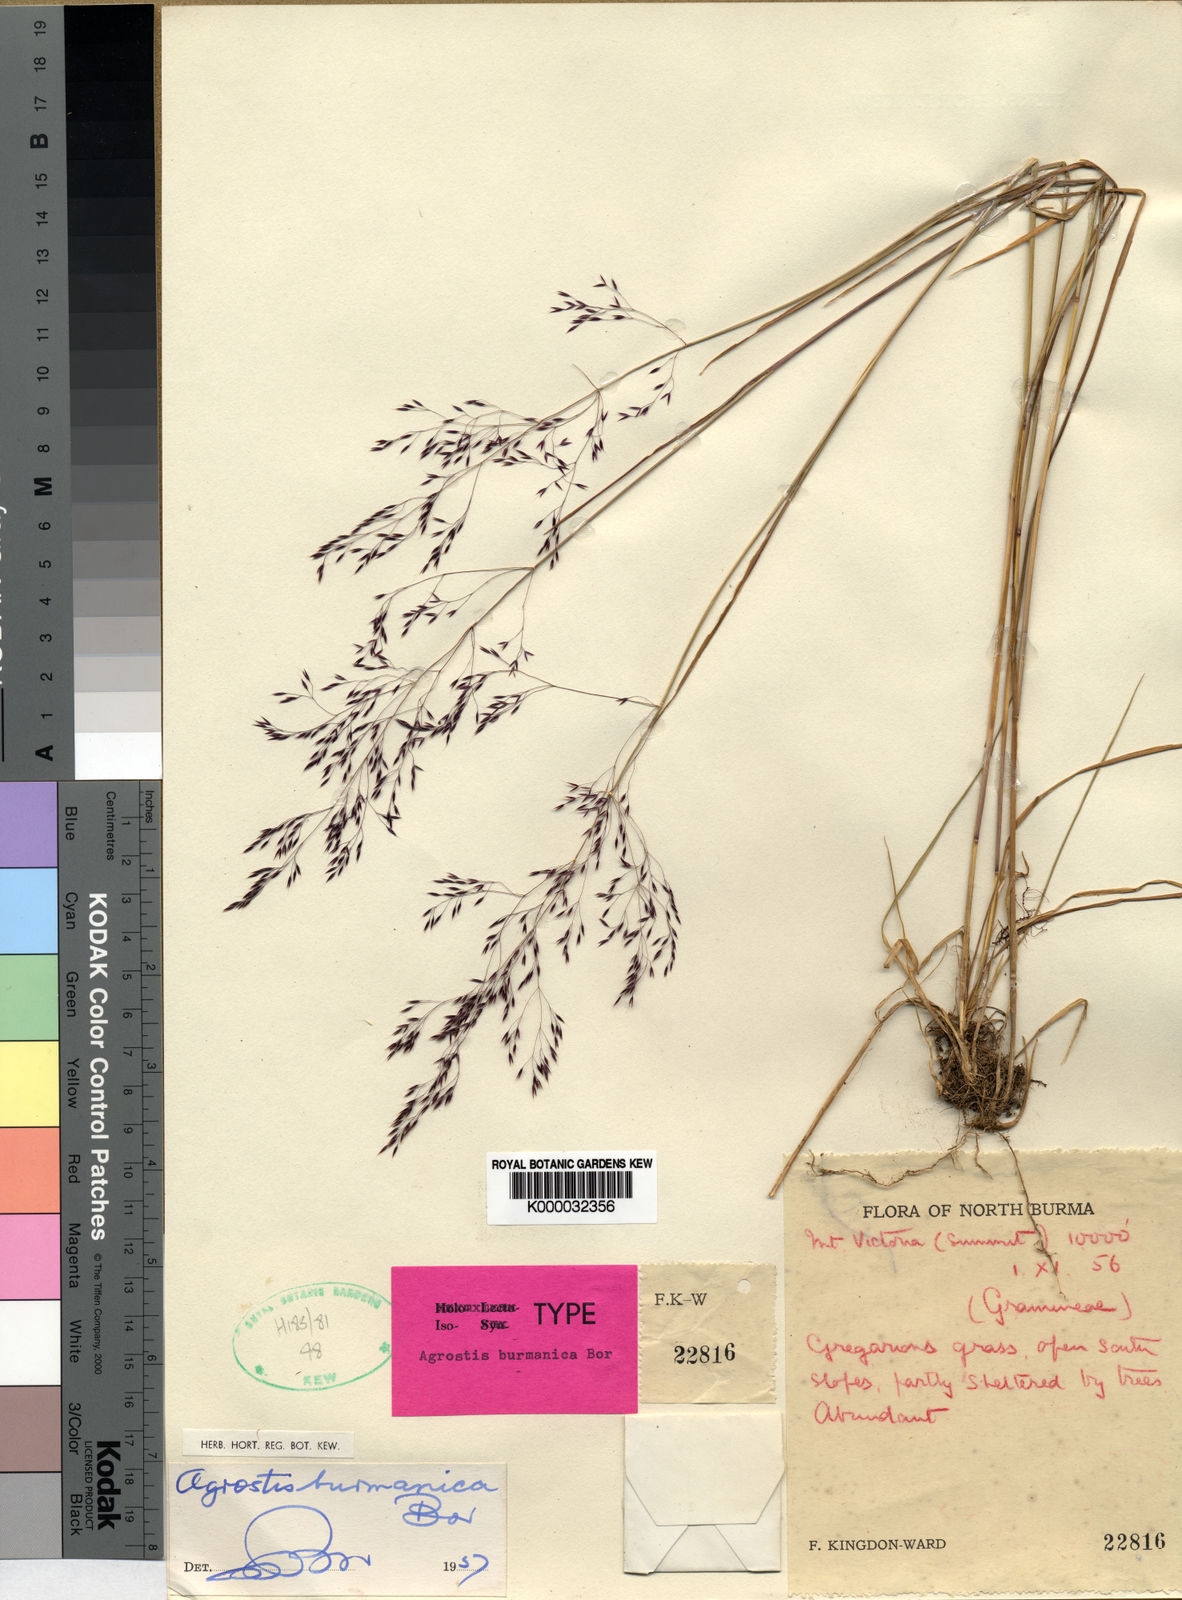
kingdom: Plantae
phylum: Tracheophyta
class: Liliopsida
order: Poales
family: Poaceae
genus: Agrostis
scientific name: Agrostis burmanica
